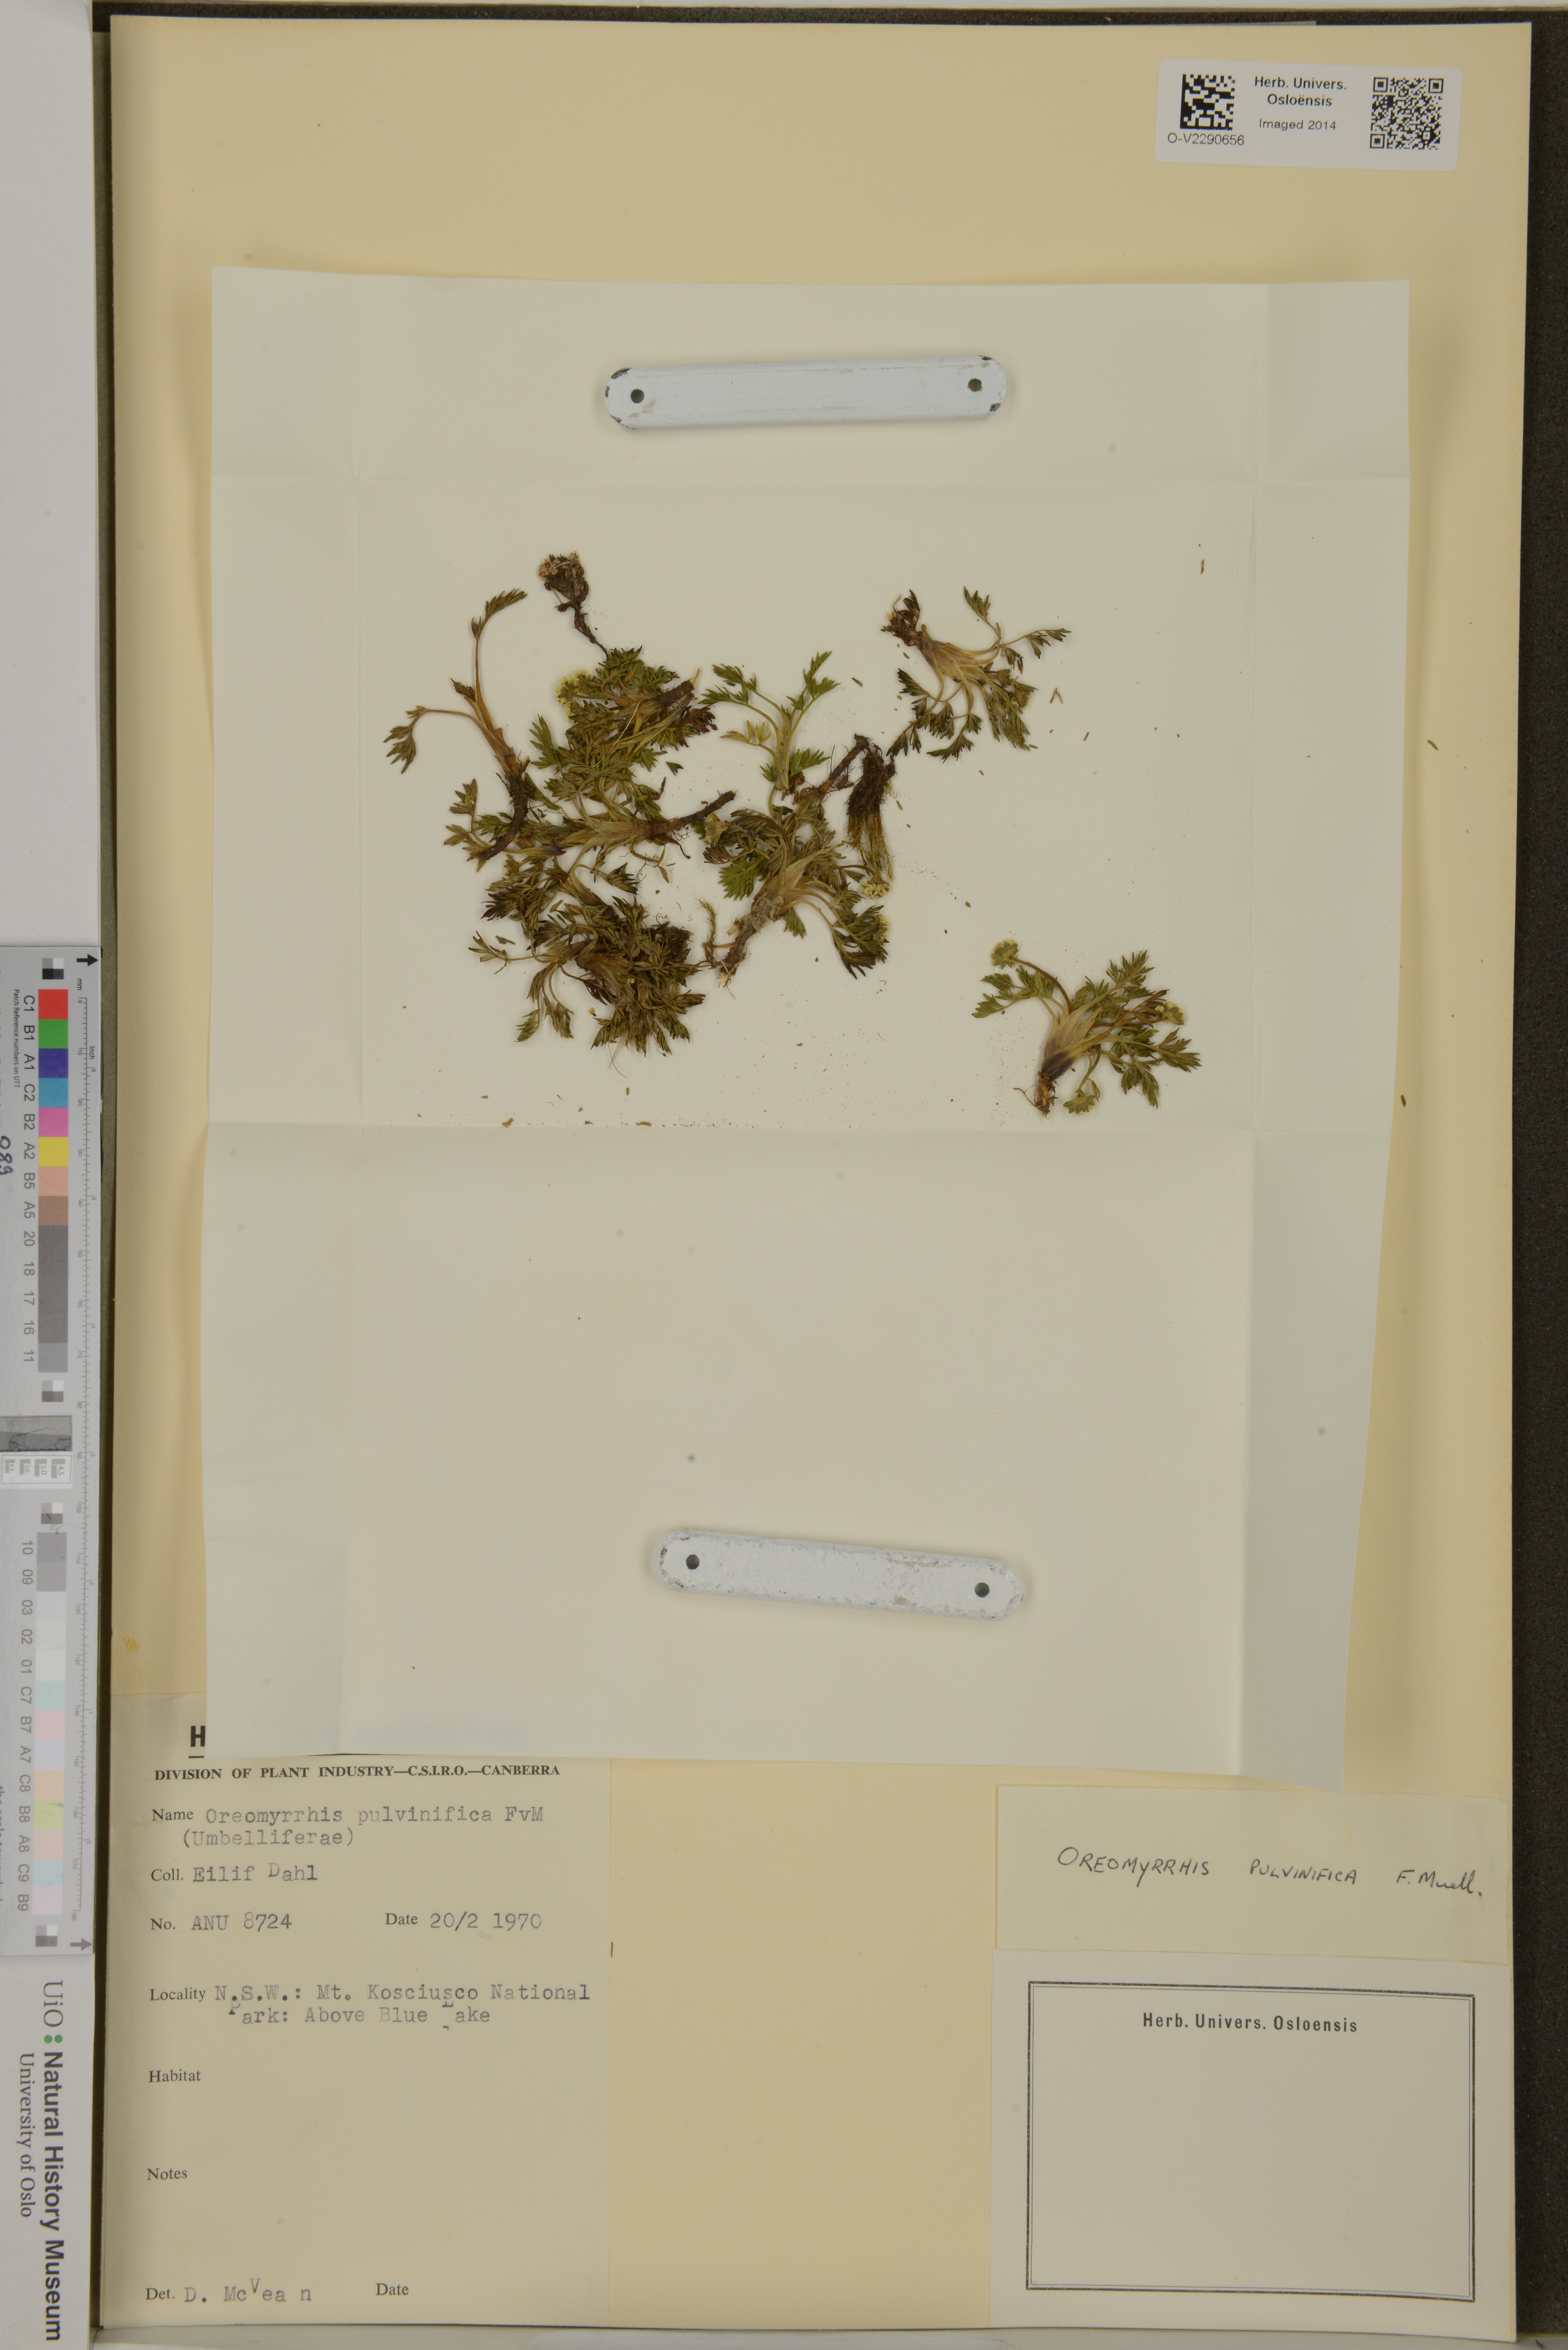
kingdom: Plantae
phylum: Tracheophyta
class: Magnoliopsida
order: Apiales
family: Apiaceae
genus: Chaerophyllum
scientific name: Chaerophyllum pulvinificum
